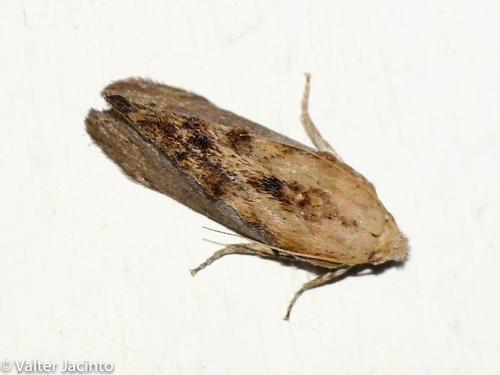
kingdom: Animalia
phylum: Arthropoda
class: Insecta
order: Lepidoptera
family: Pyralidae
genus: Galleria
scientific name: Galleria mellonella
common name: Greater wax moth
